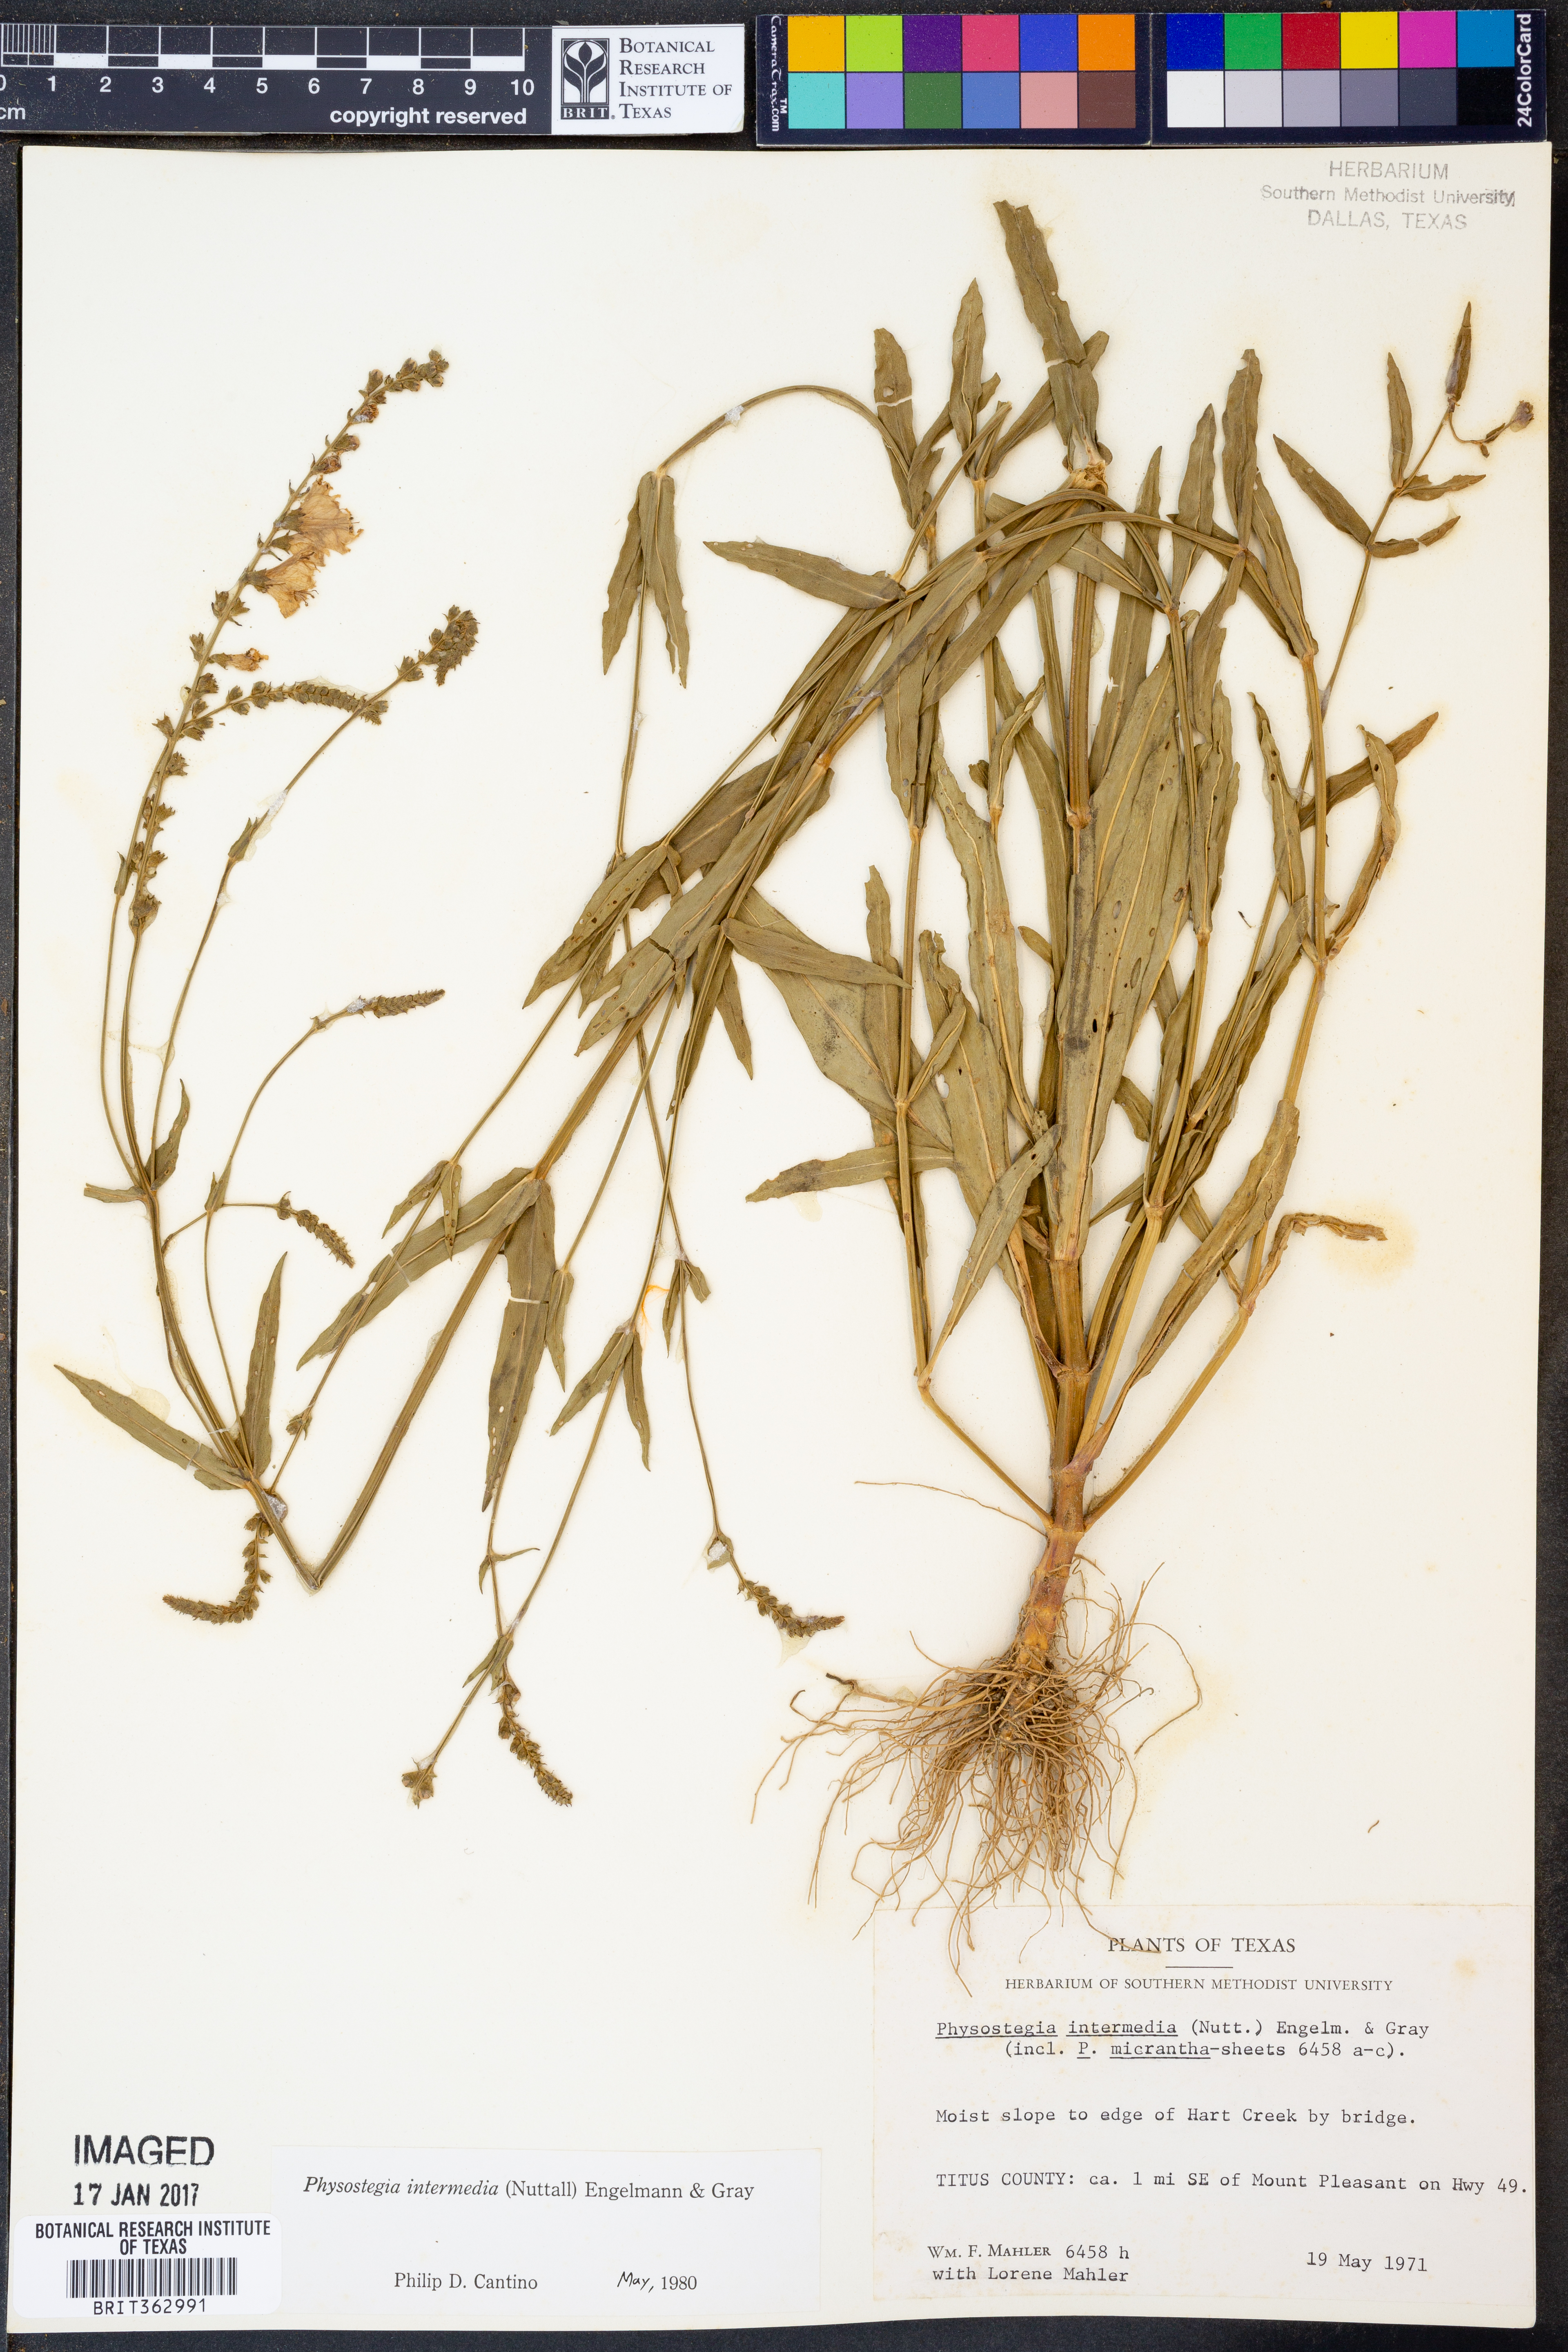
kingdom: Plantae
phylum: Tracheophyta
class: Magnoliopsida
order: Lamiales
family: Lamiaceae
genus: Physostegia
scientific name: Physostegia intermedia
